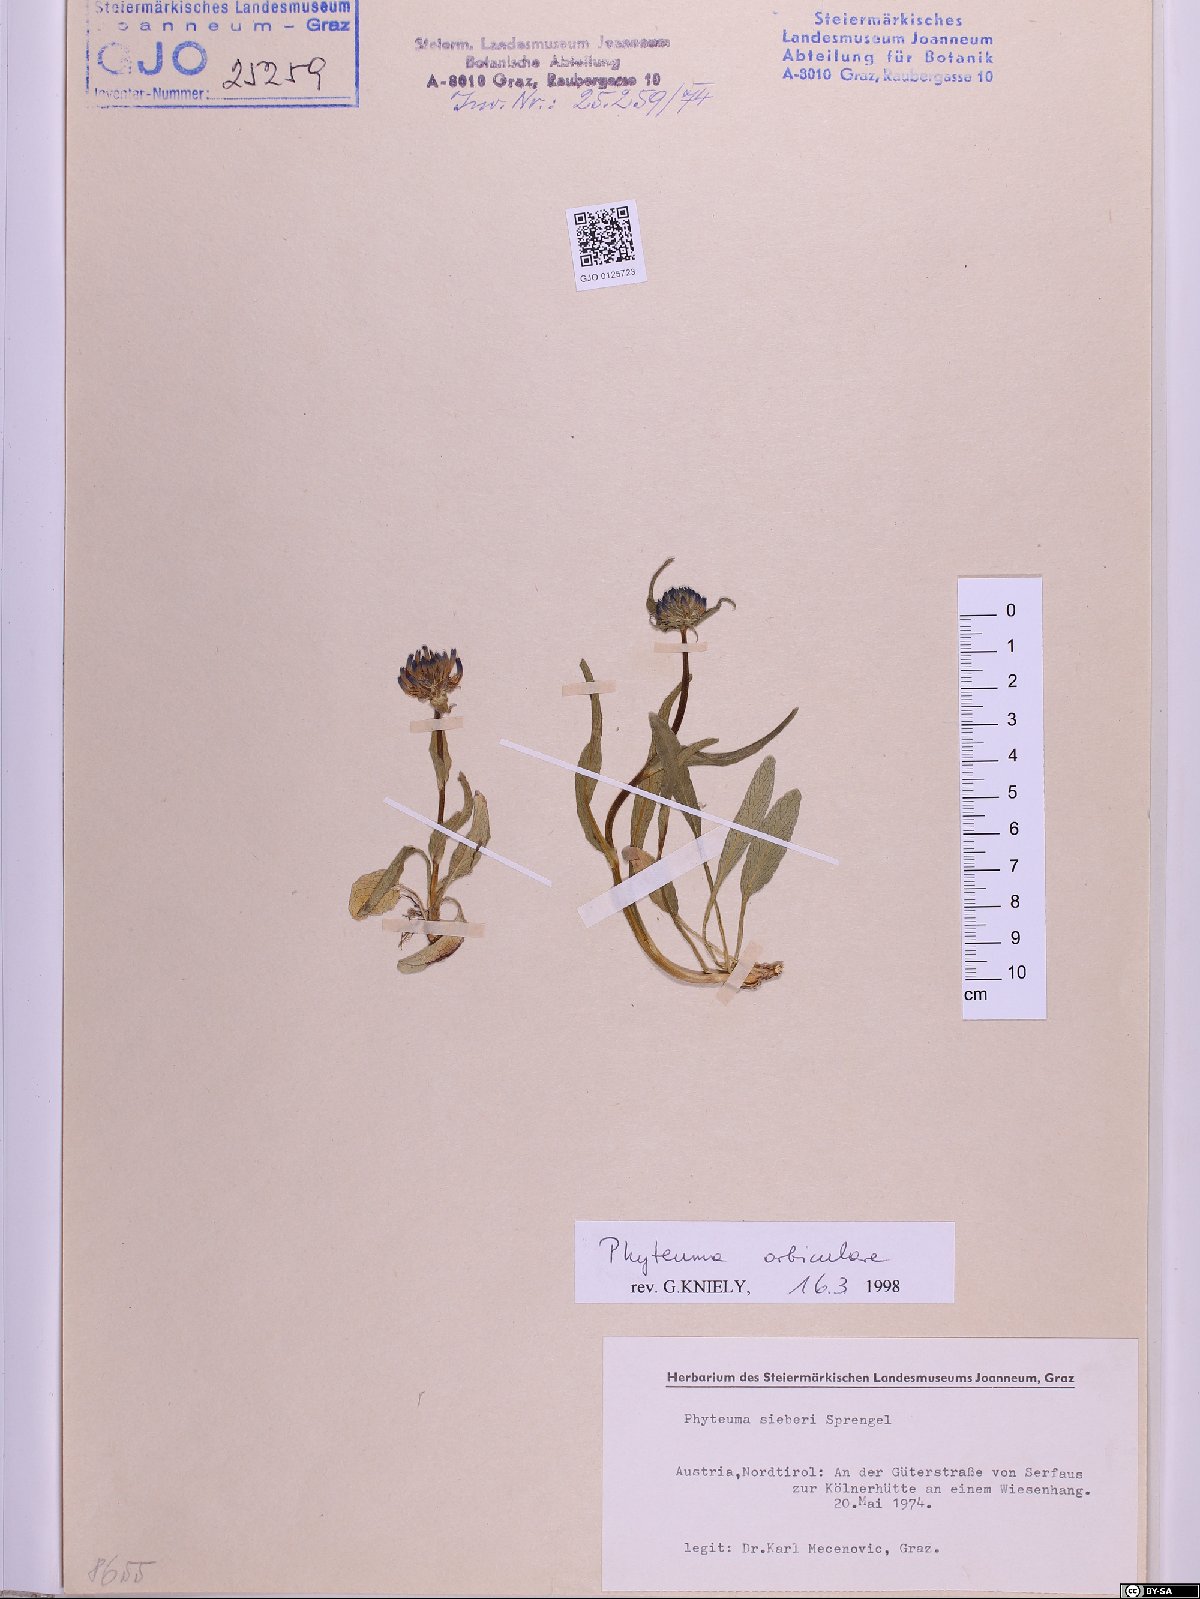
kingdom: Plantae
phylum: Tracheophyta
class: Magnoliopsida
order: Asterales
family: Campanulaceae
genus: Phyteuma
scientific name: Phyteuma orbiculare
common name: Round-headed rampion
